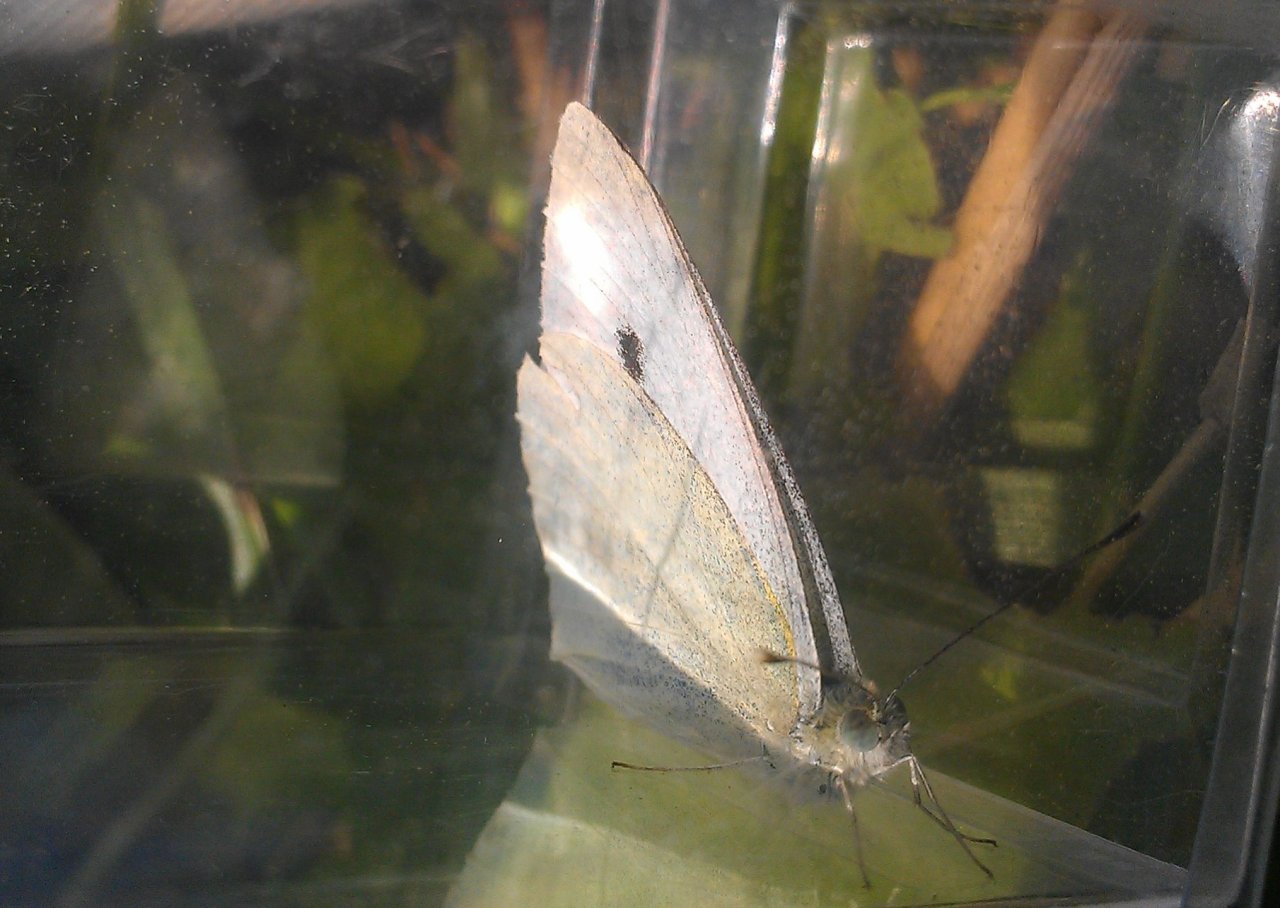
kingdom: Animalia
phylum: Arthropoda
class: Insecta
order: Lepidoptera
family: Pieridae
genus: Pieris
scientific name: Pieris rapae
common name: Cabbage White
